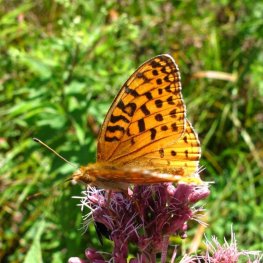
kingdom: Animalia
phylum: Arthropoda
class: Insecta
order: Lepidoptera
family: Nymphalidae
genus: Speyeria
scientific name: Speyeria aphrodite
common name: Aphrodite Fritillary
